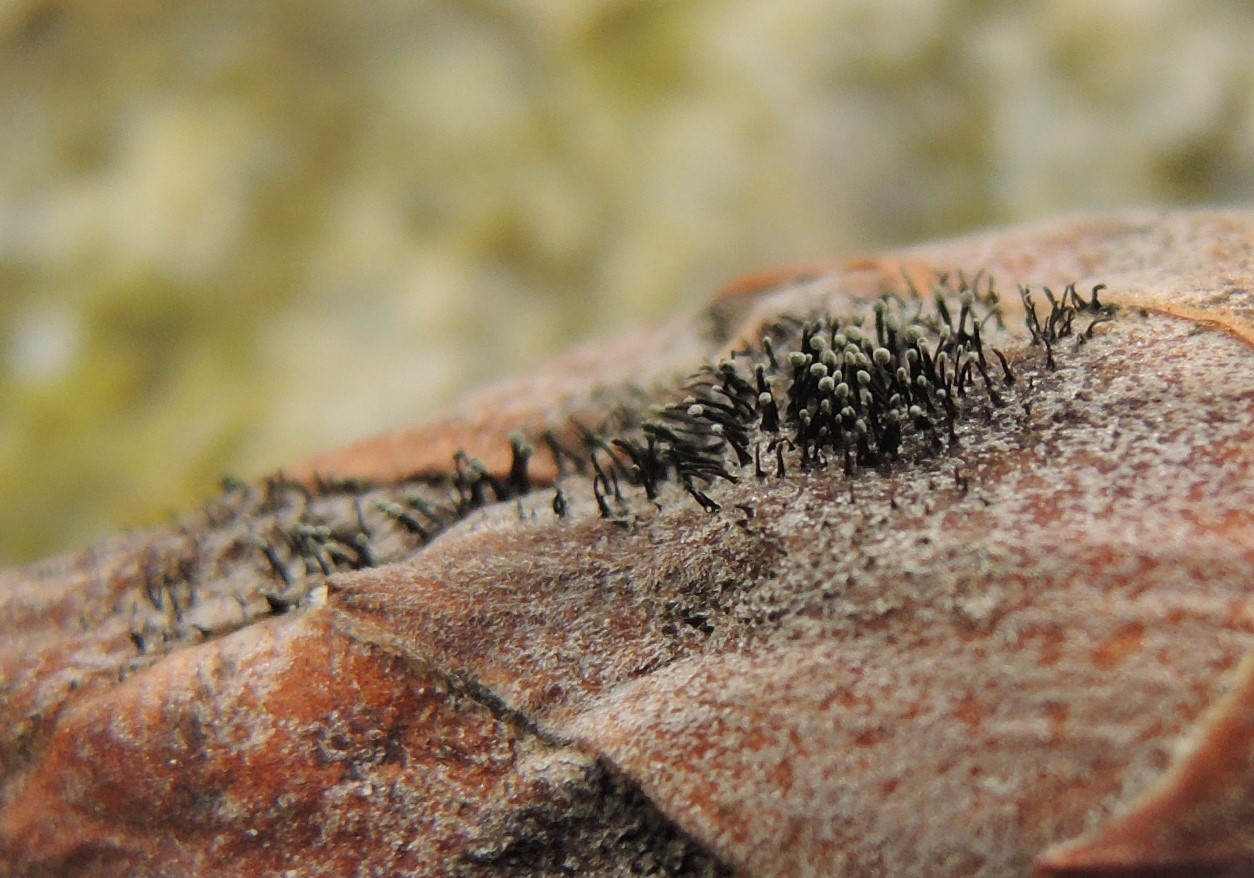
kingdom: Fungi
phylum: Ascomycota
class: Dothideomycetes
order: Pleosporales
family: Melanommataceae
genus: Seifertia
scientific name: Seifertia azaleae
